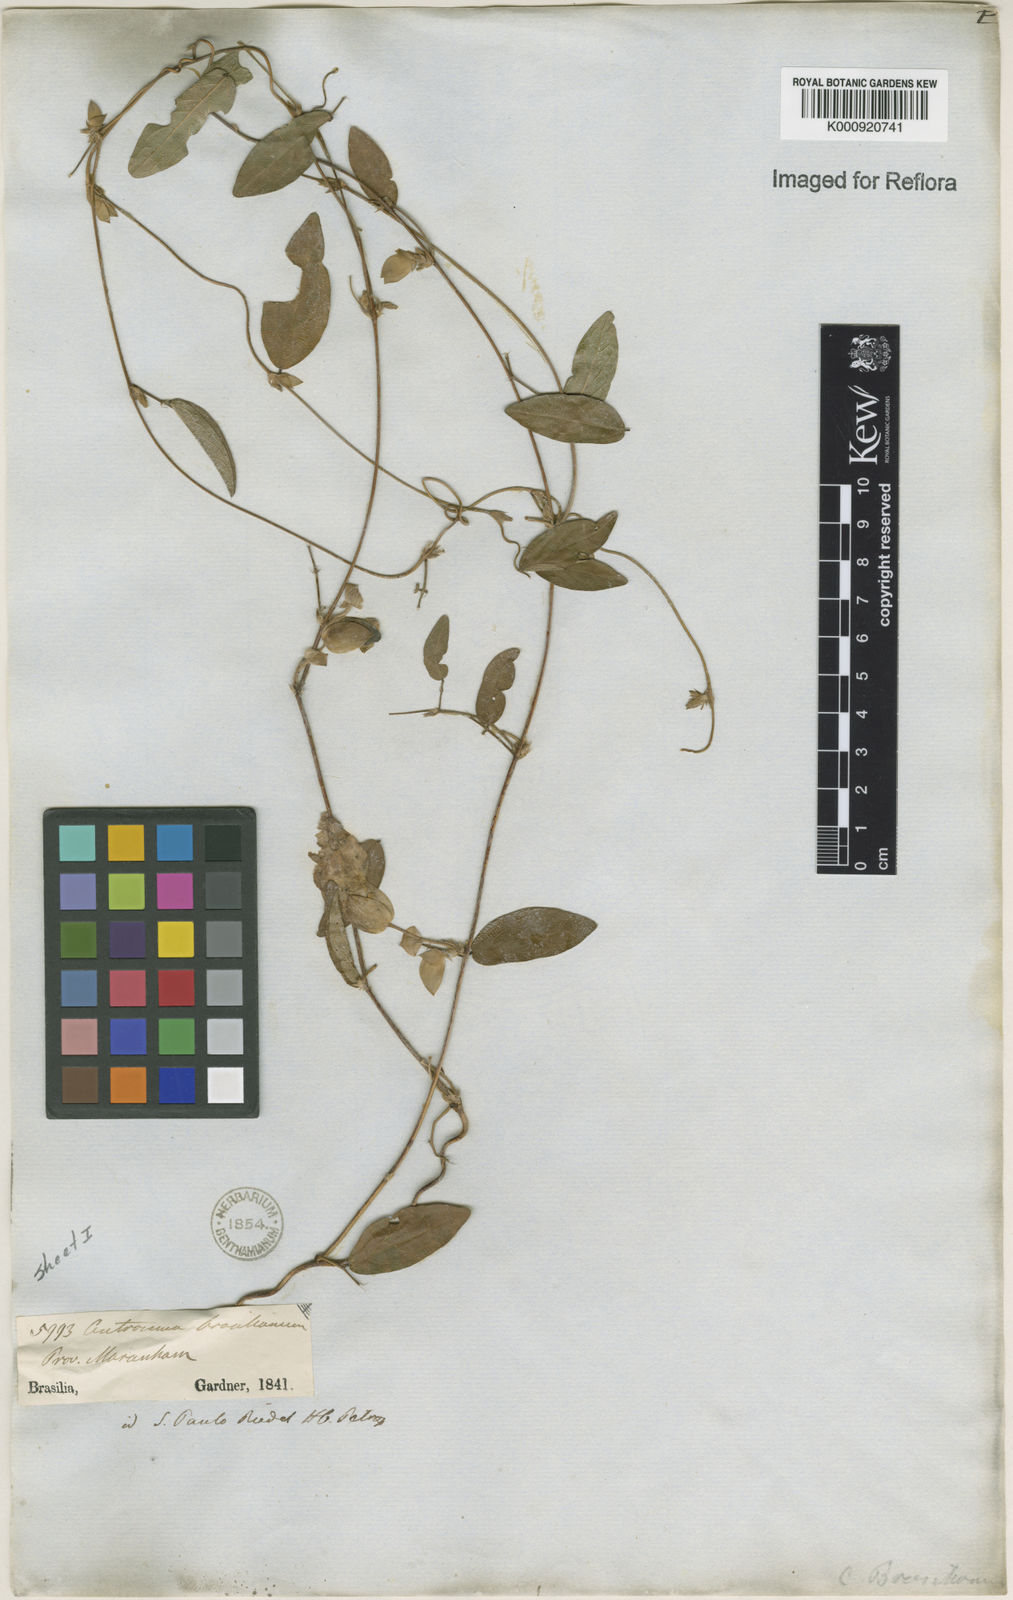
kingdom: Plantae
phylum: Tracheophyta
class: Magnoliopsida
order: Fabales
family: Fabaceae
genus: Centrosema
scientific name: Centrosema brasilianum
